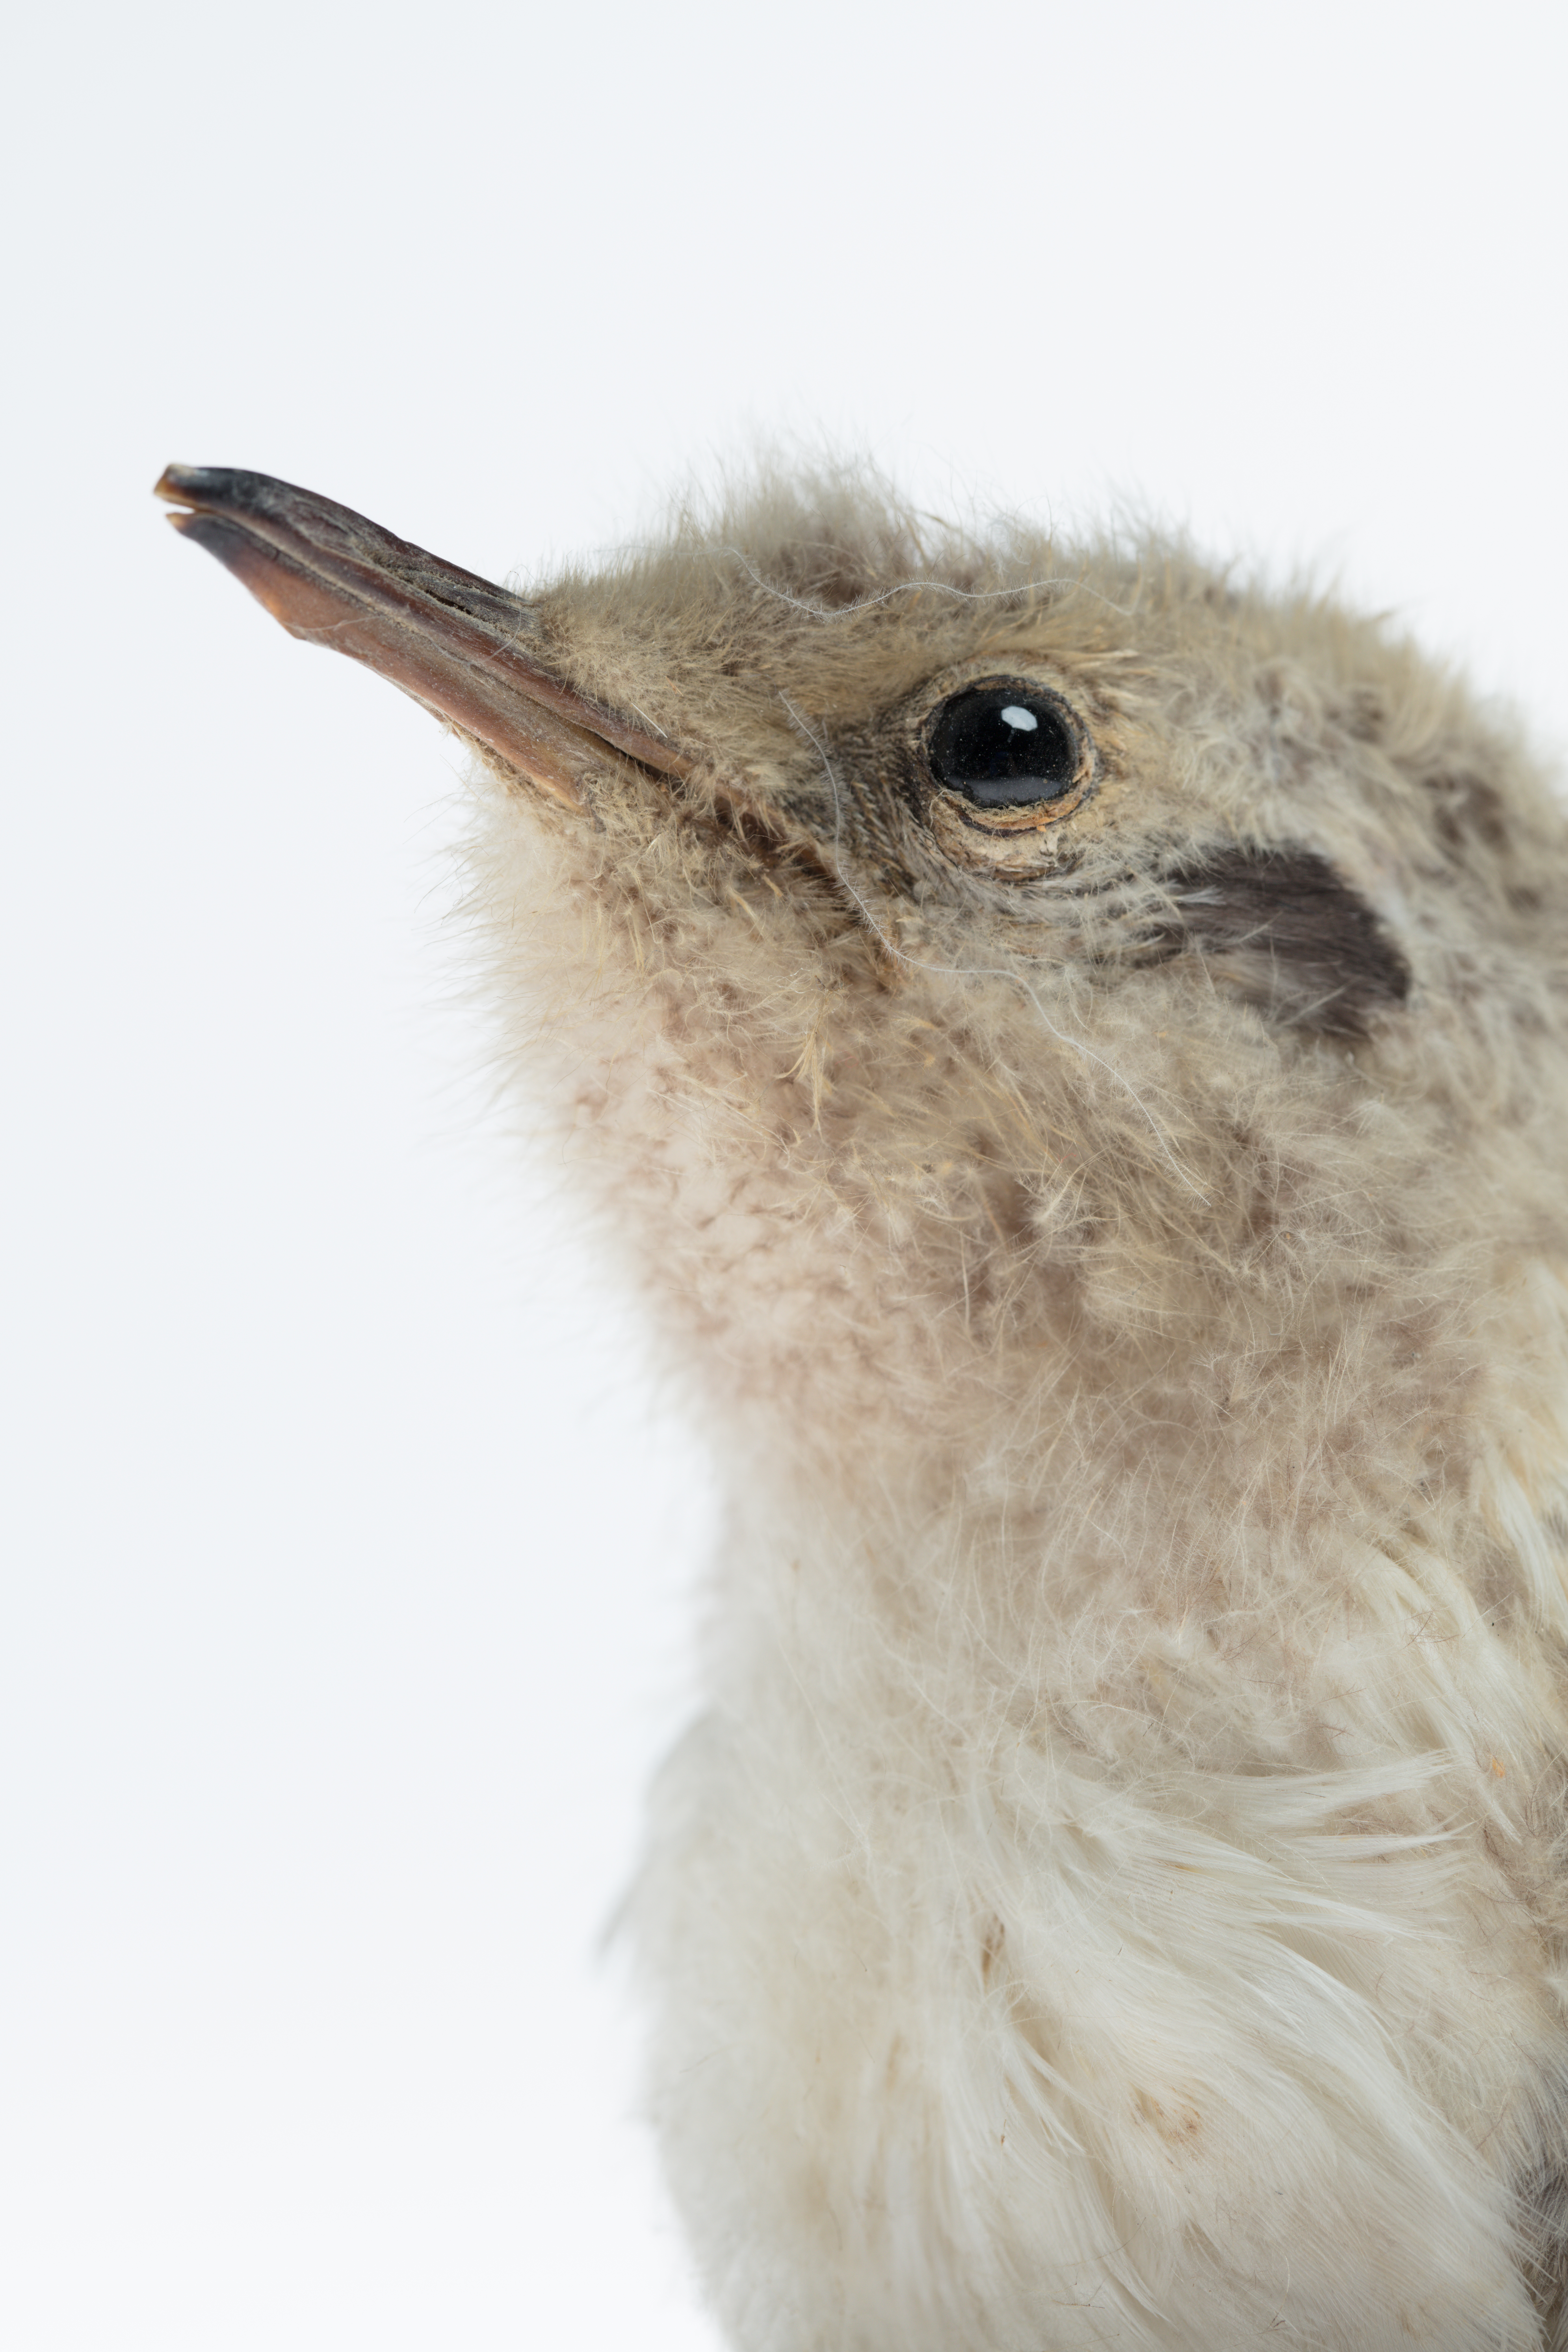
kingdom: Animalia
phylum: Chordata
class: Aves
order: Charadriiformes
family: Laridae
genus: Sterna
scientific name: Sterna striata
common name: White-fronted tern
